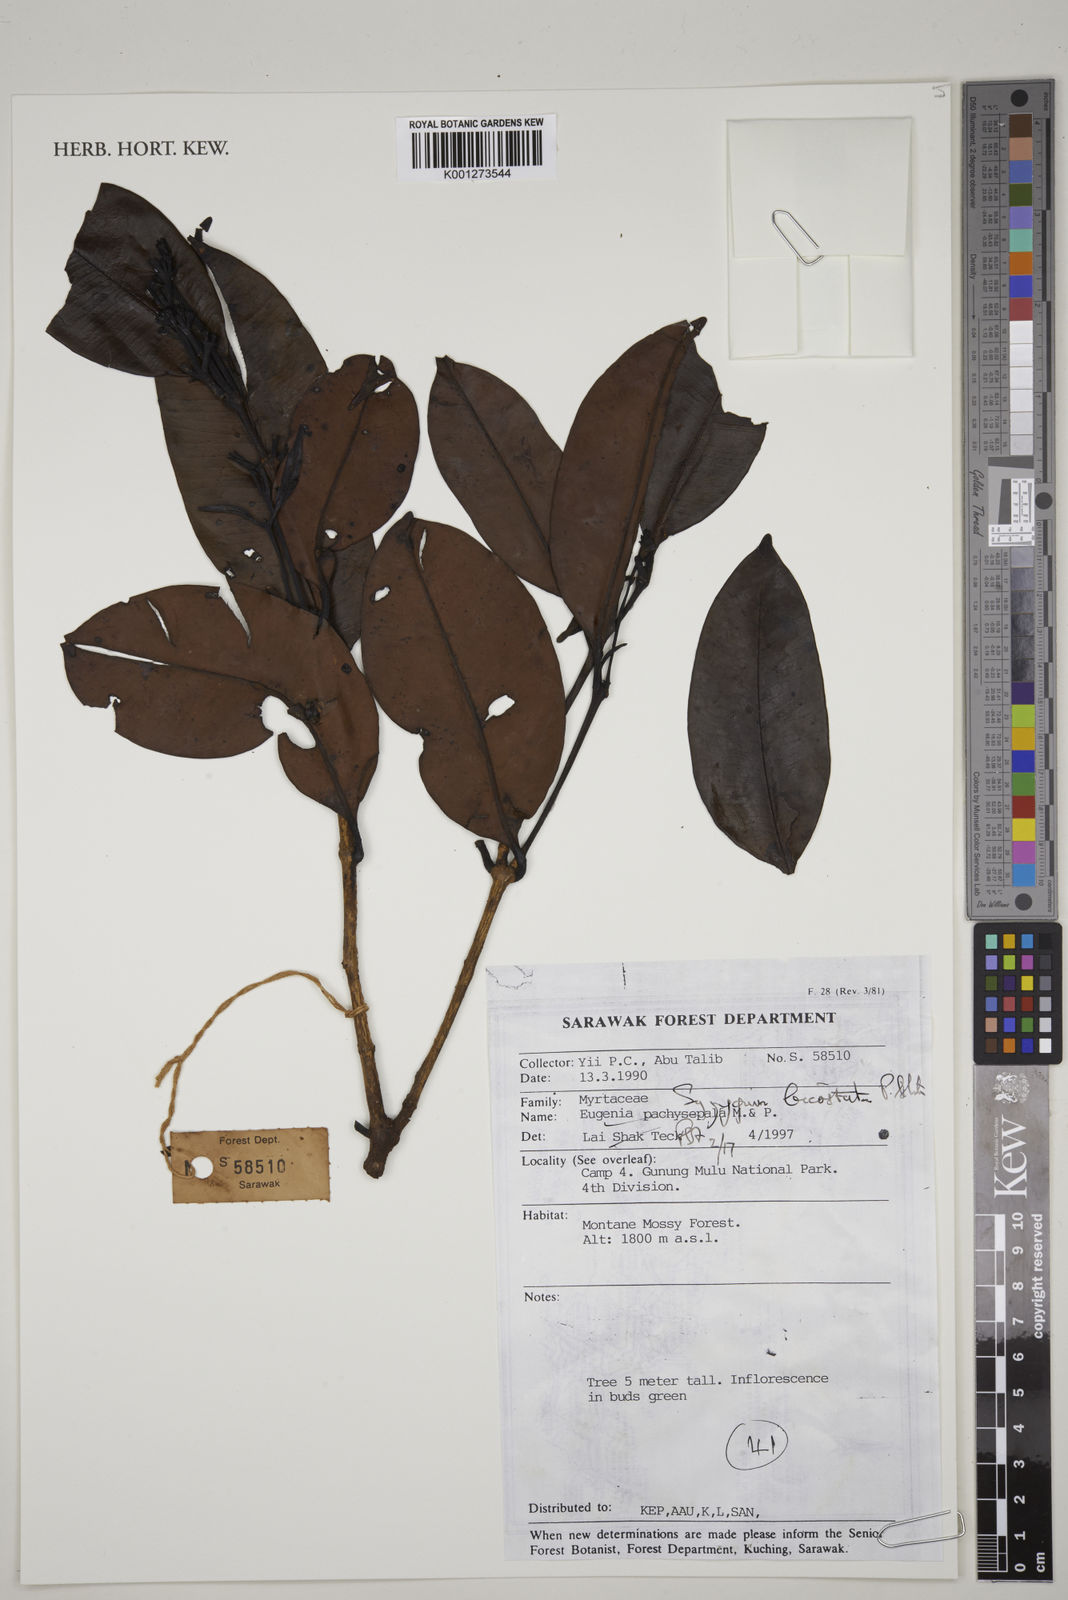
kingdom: Plantae
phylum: Tracheophyta
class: Magnoliopsida
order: Myrtales
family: Myrtaceae
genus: Syzygium
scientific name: Syzygium bicostatum
